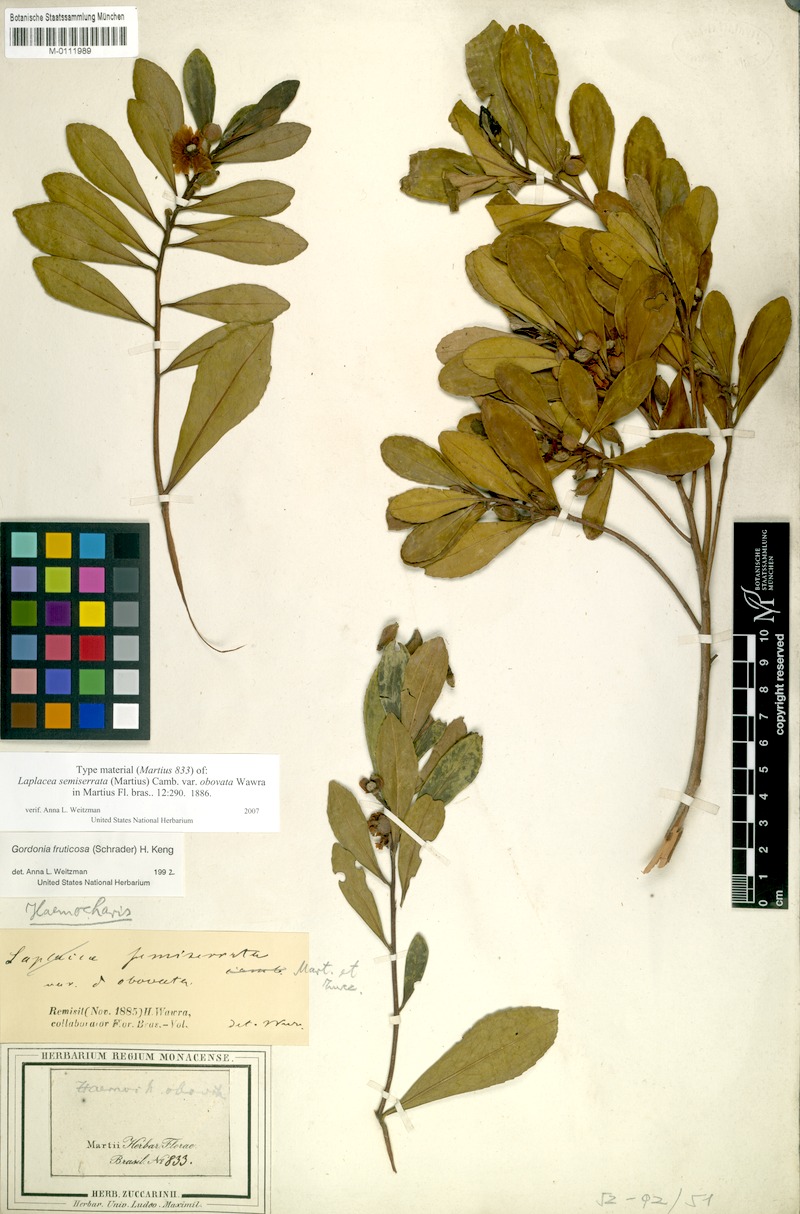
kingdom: Plantae
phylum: Tracheophyta
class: Magnoliopsida
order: Ericales
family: Theaceae
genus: Gordonia
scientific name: Gordonia fruticosa
